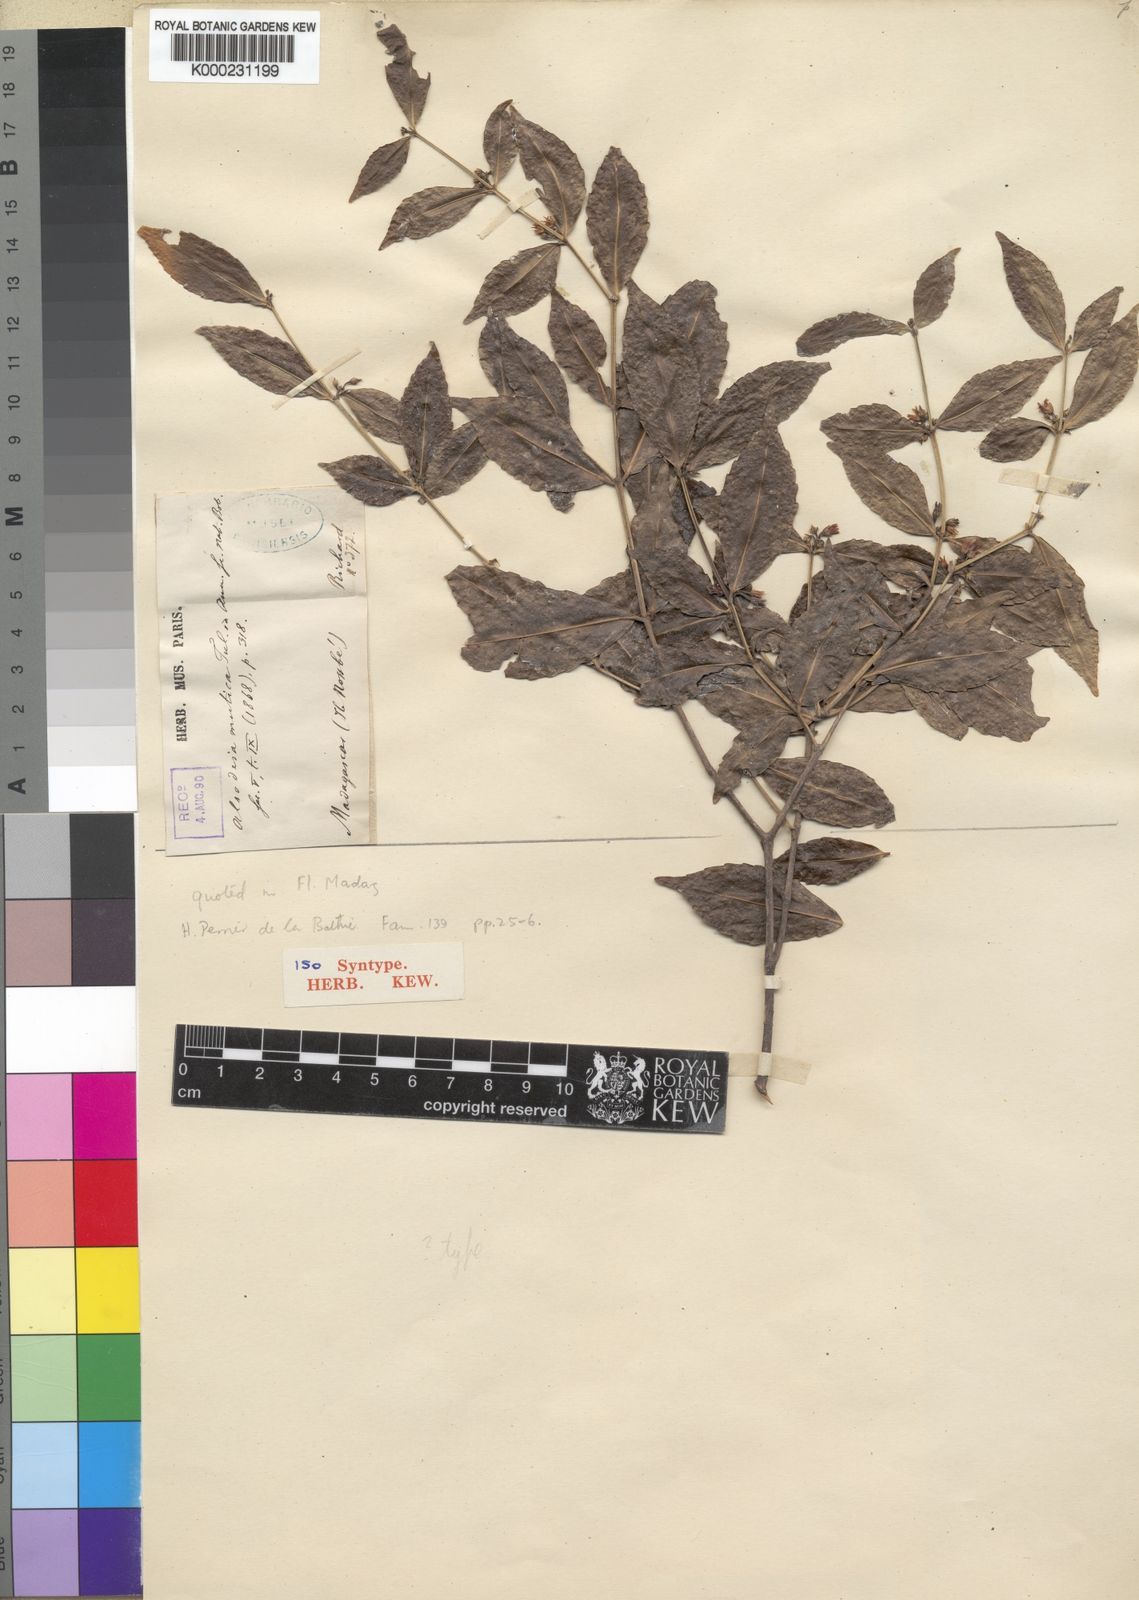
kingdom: Plantae
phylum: Tracheophyta
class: Magnoliopsida
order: Malpighiales
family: Violaceae
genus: Rinorea
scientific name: Rinorea mutica
